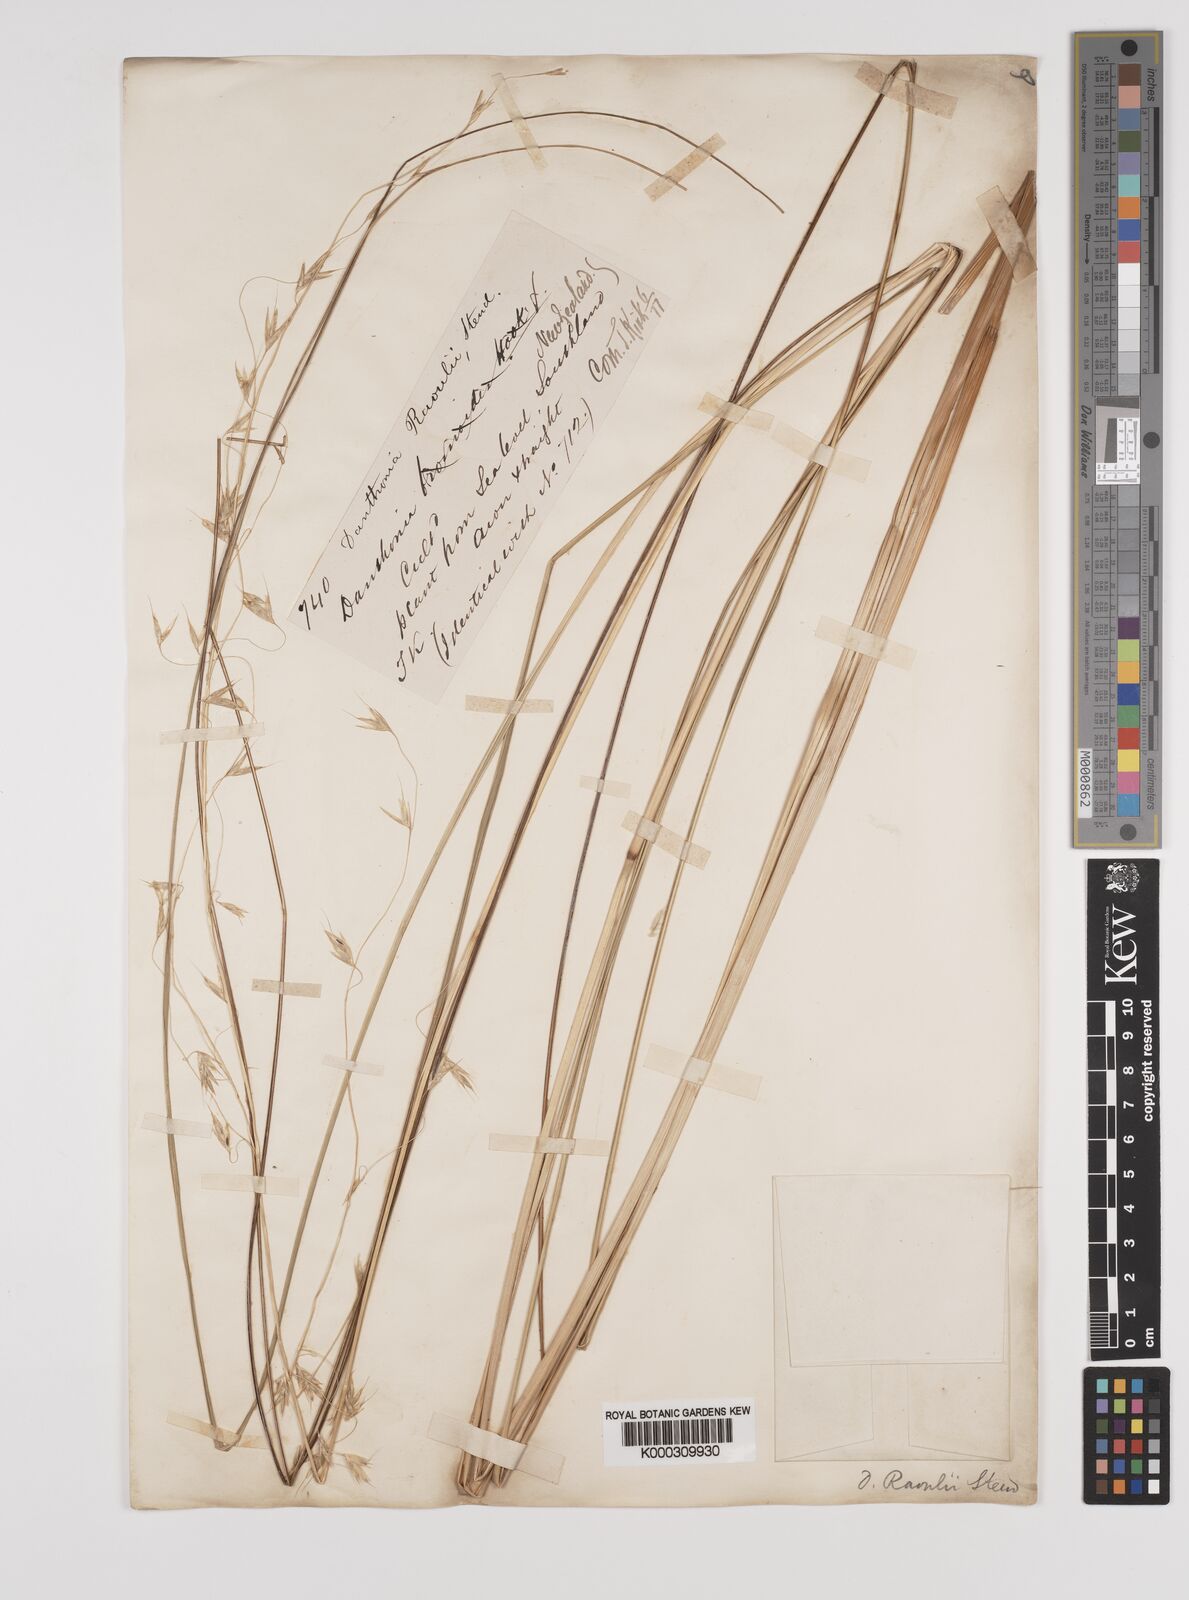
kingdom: Plantae
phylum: Tracheophyta
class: Liliopsida
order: Poales
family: Poaceae
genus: Chionochloa
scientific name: Chionochloa rigida
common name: Narrow leaved snow tussock
